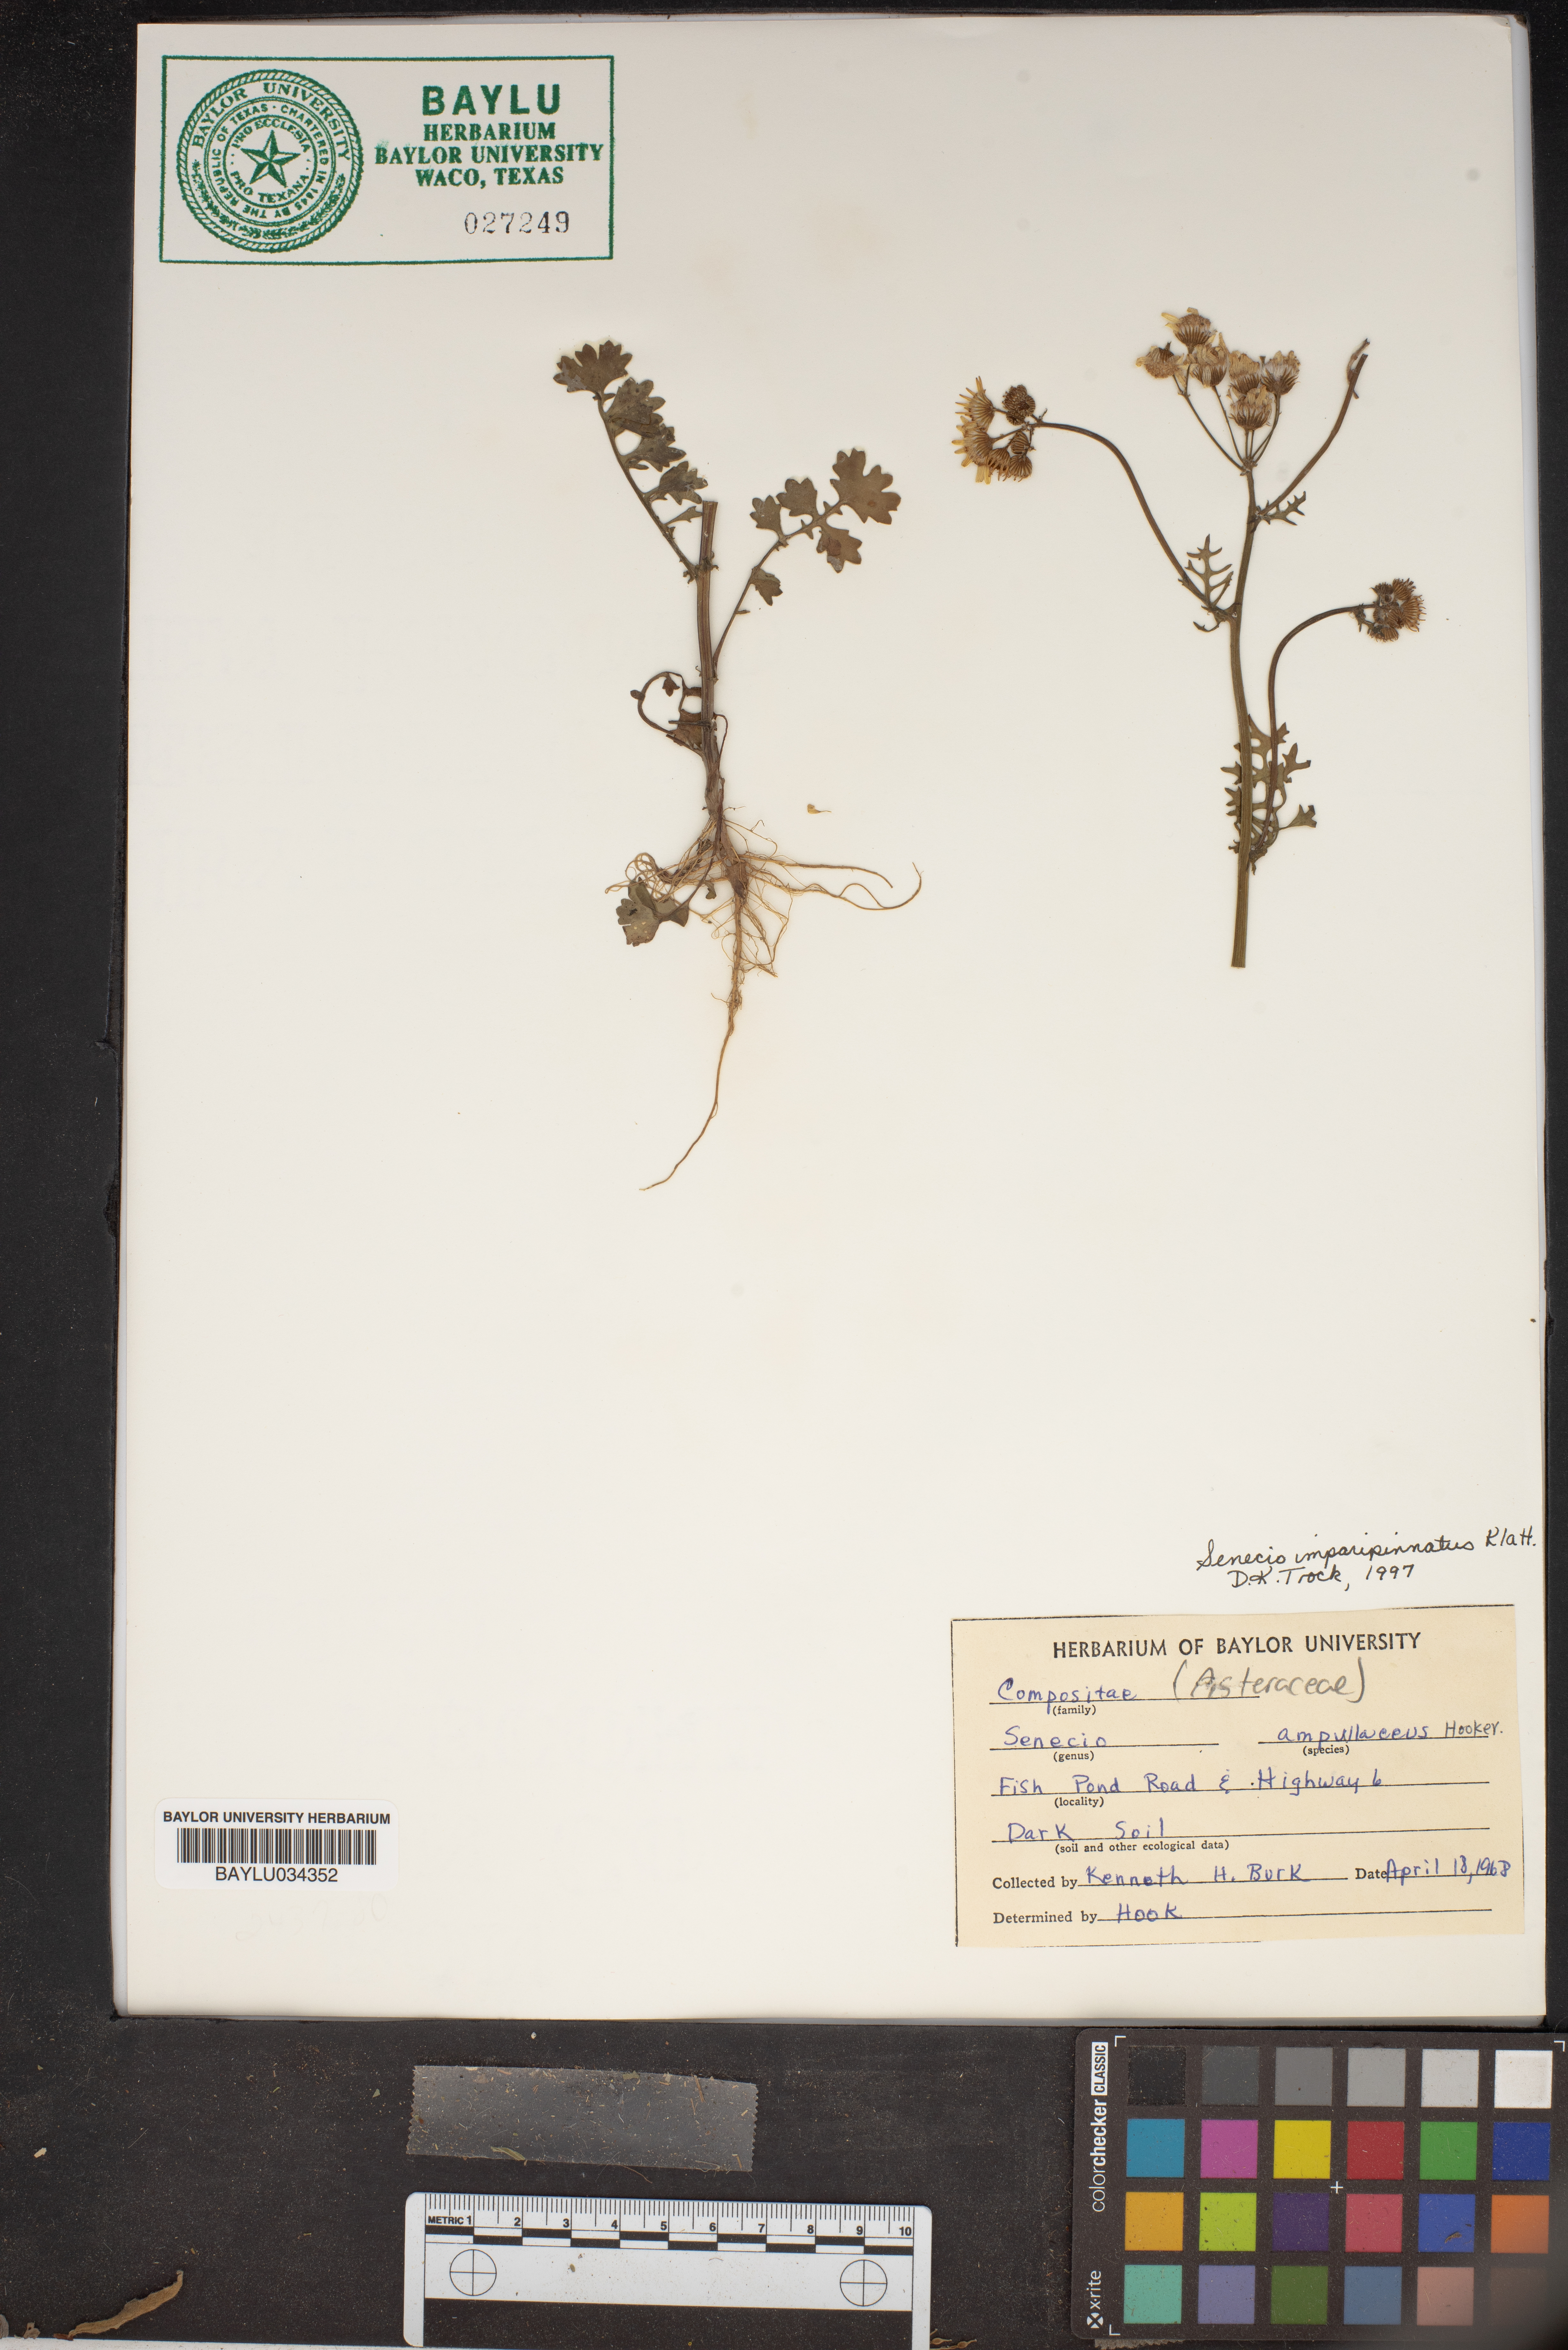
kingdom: Plantae
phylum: Tracheophyta
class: Magnoliopsida
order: Asterales
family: Asteraceae
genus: Senecio
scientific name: Senecio ampullaceus
